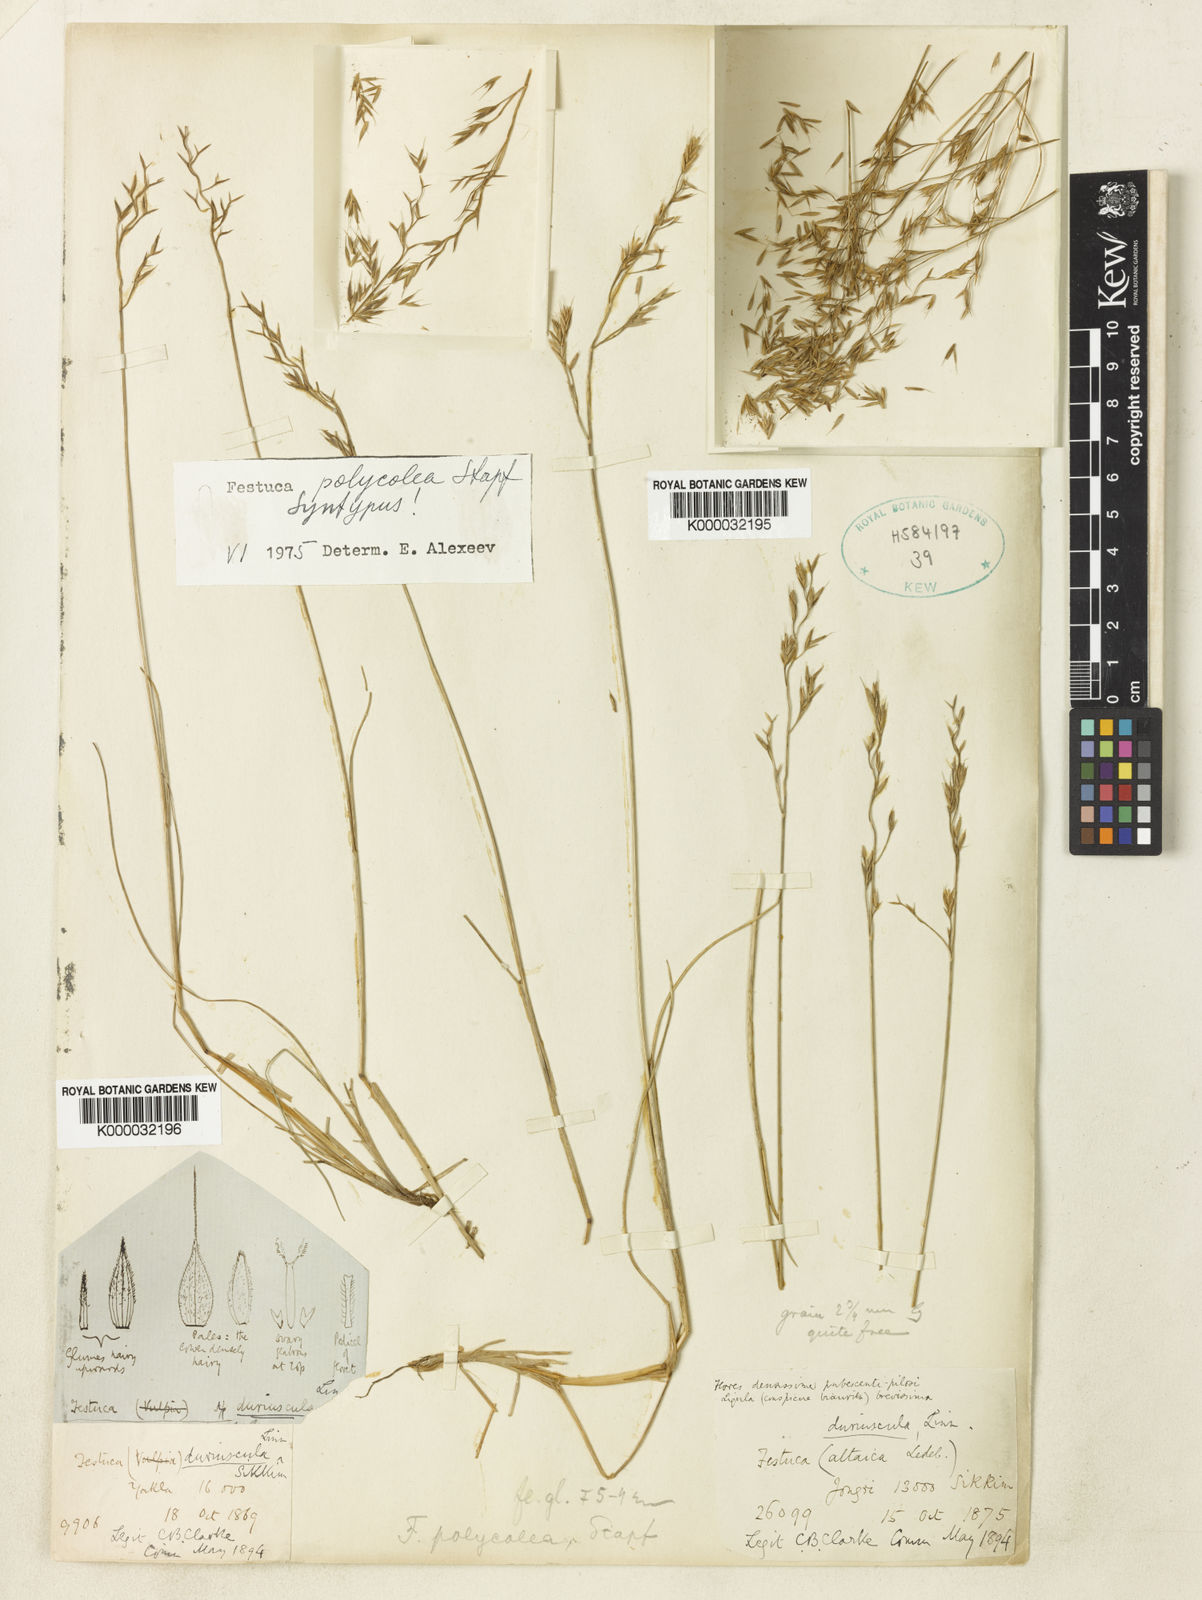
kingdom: Plantae
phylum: Tracheophyta
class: Liliopsida
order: Poales
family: Poaceae
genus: Festuca
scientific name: Festuca polycolea
